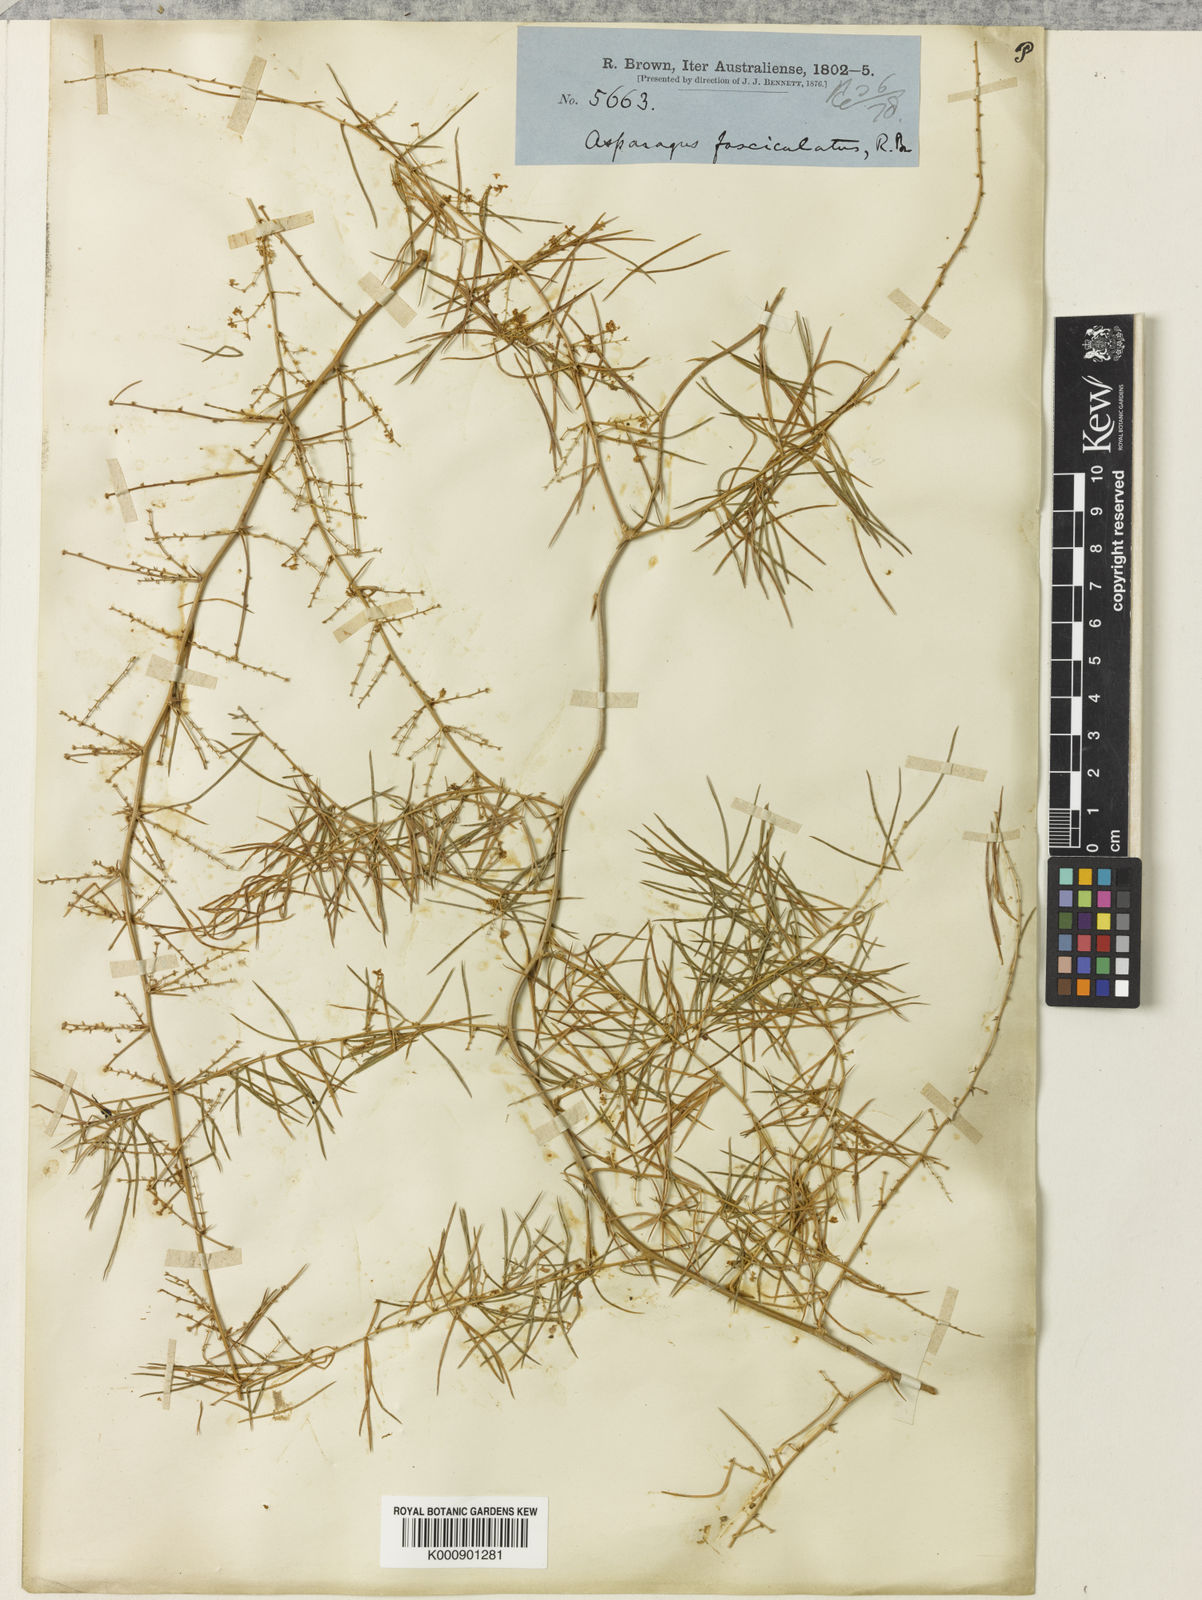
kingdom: Plantae
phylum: Tracheophyta
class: Liliopsida
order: Asparagales
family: Asparagaceae
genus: Asparagus
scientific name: Asparagus racemosus
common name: Asparagus-fern
